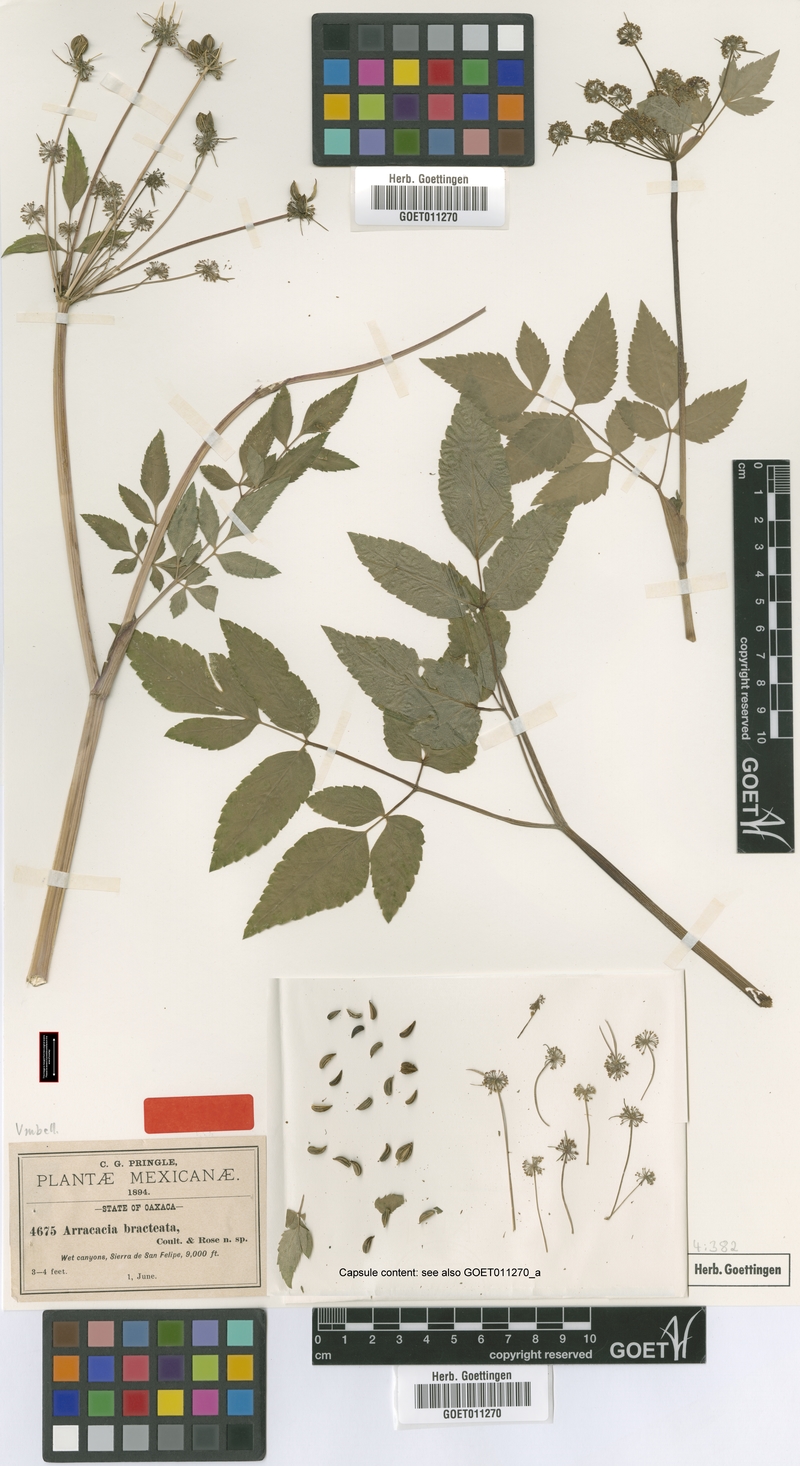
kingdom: Plantae
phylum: Tracheophyta
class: Magnoliopsida
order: Apiales
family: Apiaceae
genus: Arracacia
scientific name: Arracacia bracteata
